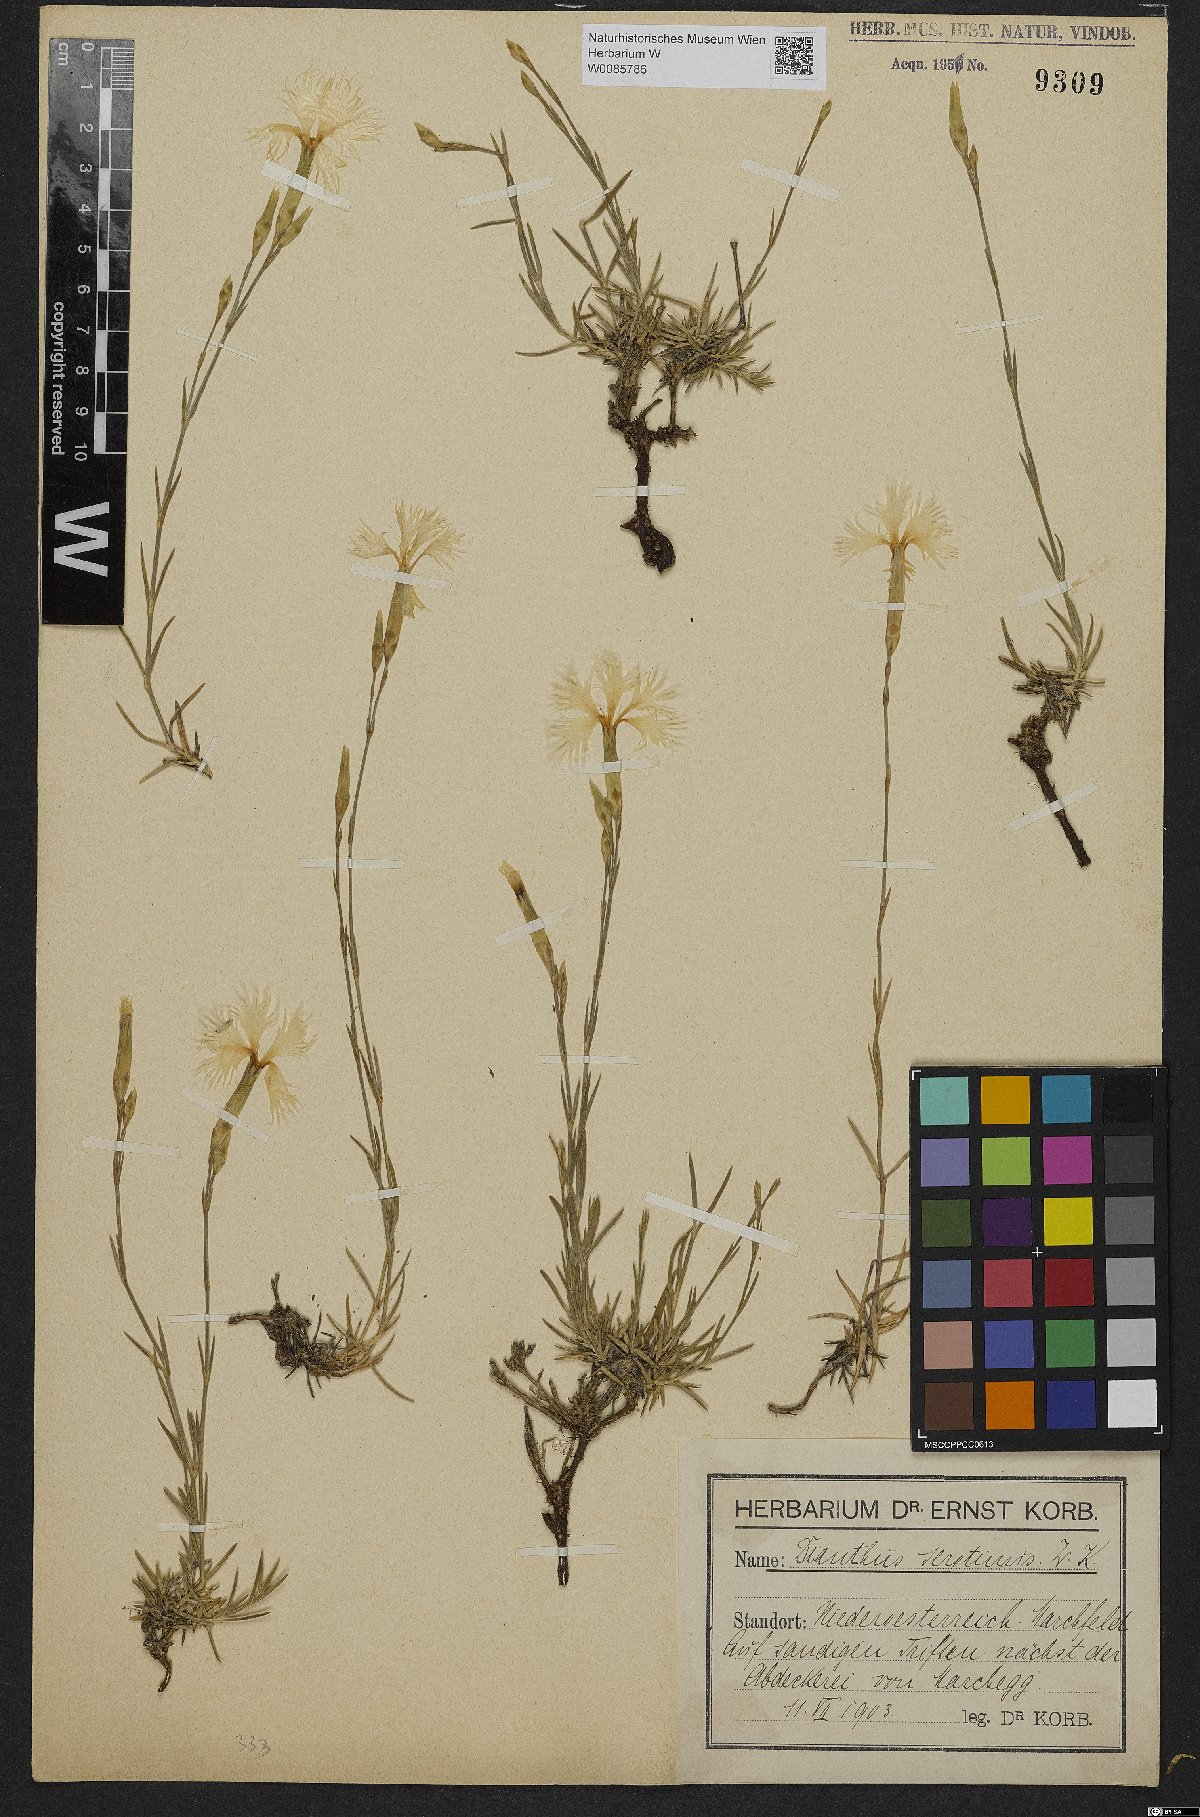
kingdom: Plantae
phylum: Tracheophyta
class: Magnoliopsida
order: Caryophyllales
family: Caryophyllaceae
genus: Dianthus
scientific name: Dianthus serotinus
